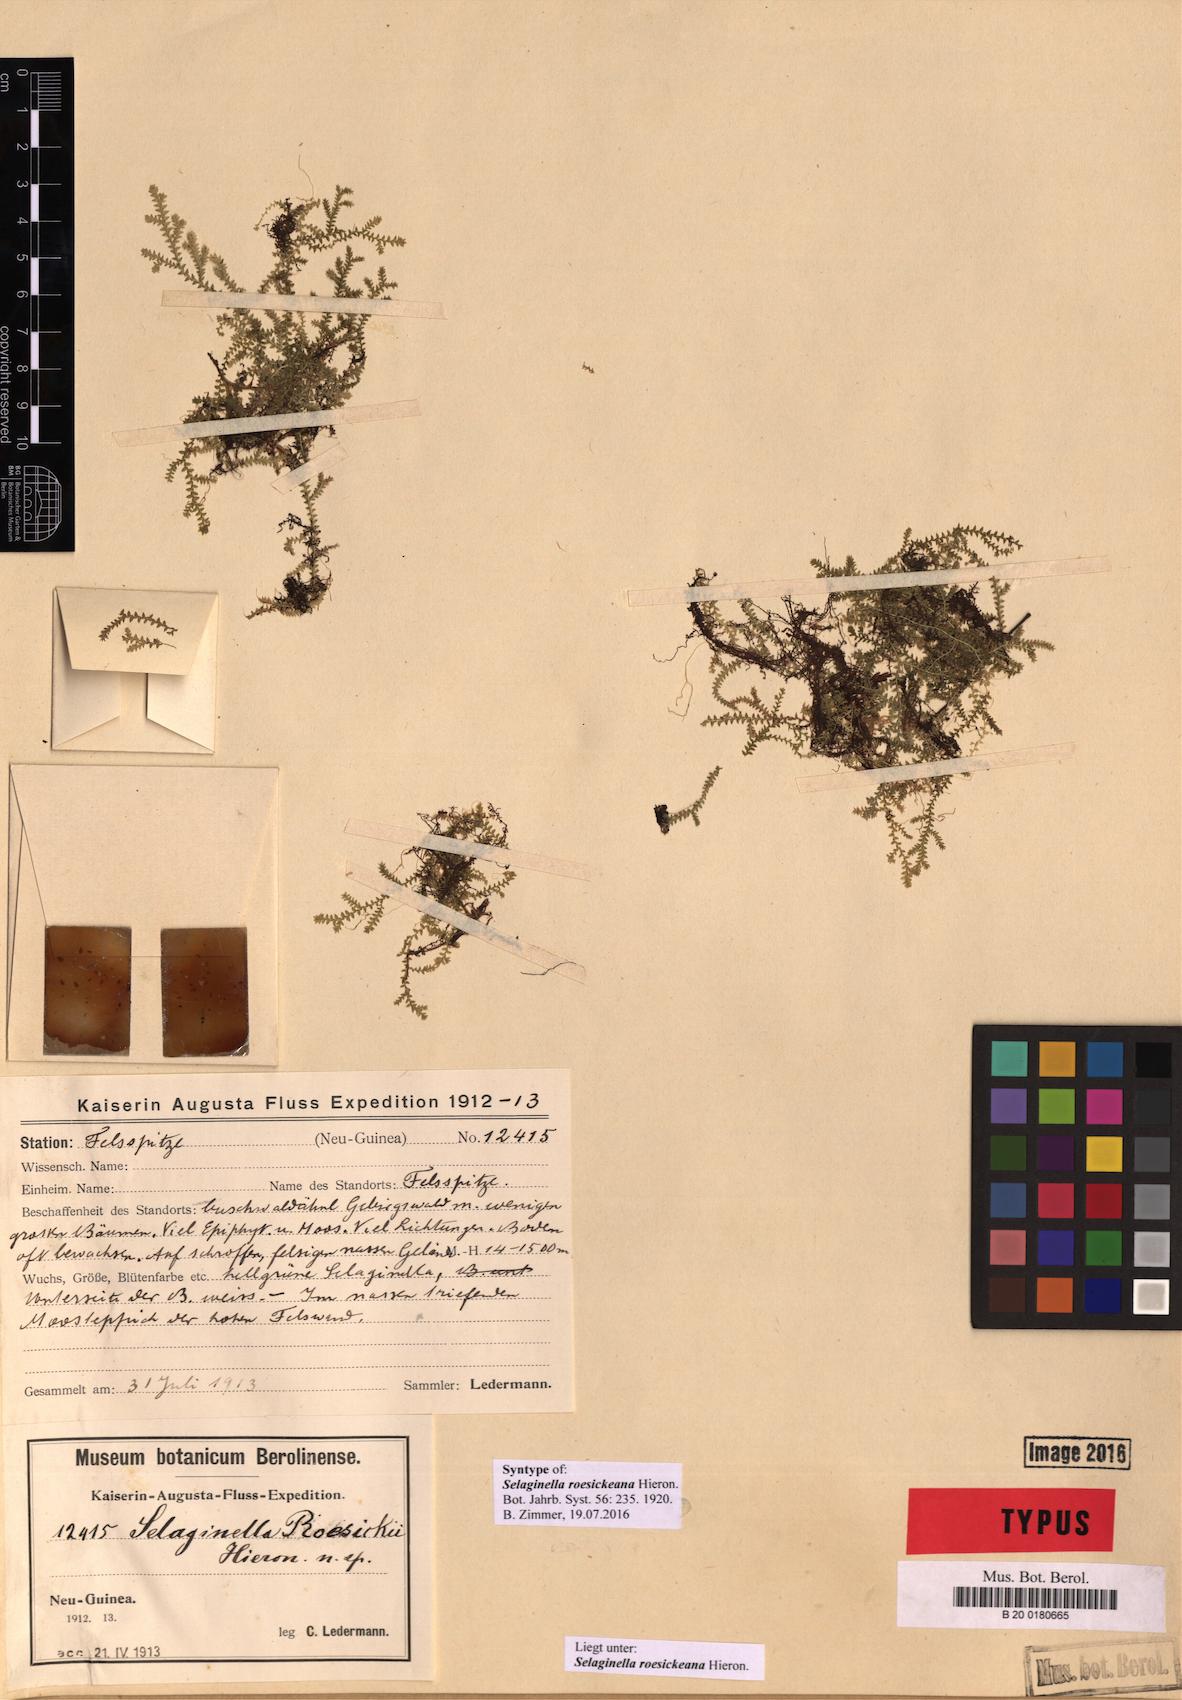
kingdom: Plantae
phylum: Tracheophyta
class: Lycopodiopsida
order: Selaginellales
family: Selaginellaceae
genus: Selaginella
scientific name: Selaginella roesickeana
